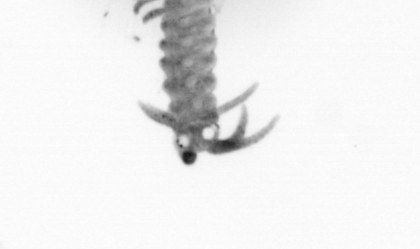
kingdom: Animalia
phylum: Annelida
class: Polychaeta
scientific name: Polychaeta
